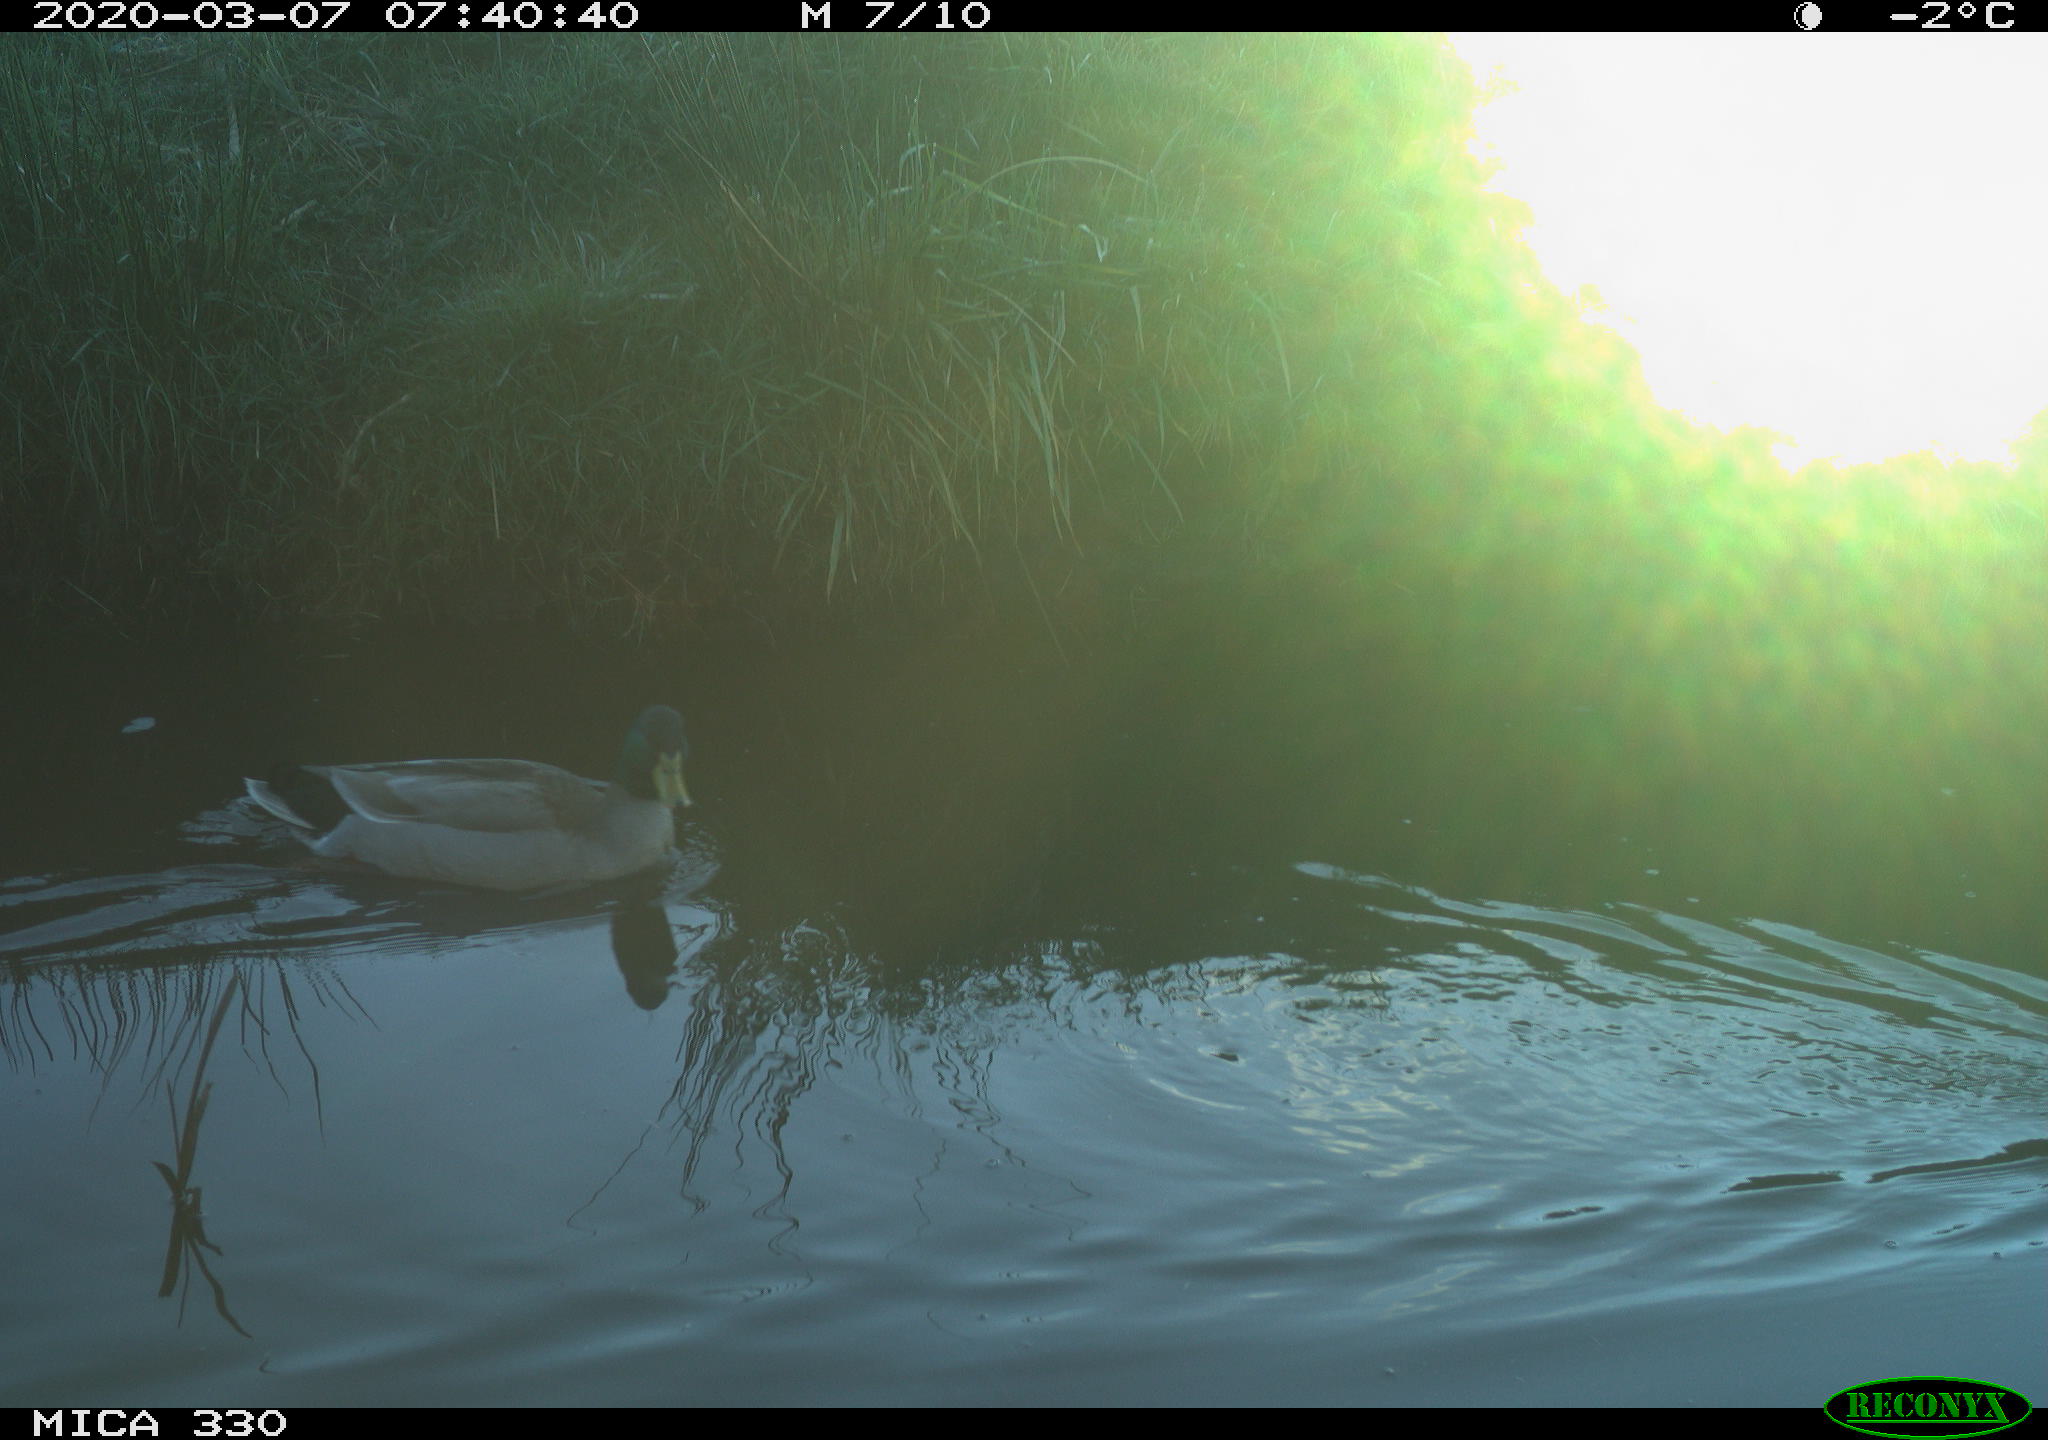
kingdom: Animalia
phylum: Chordata
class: Aves
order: Anseriformes
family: Anatidae
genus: Anas
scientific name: Anas platyrhynchos
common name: Mallard
